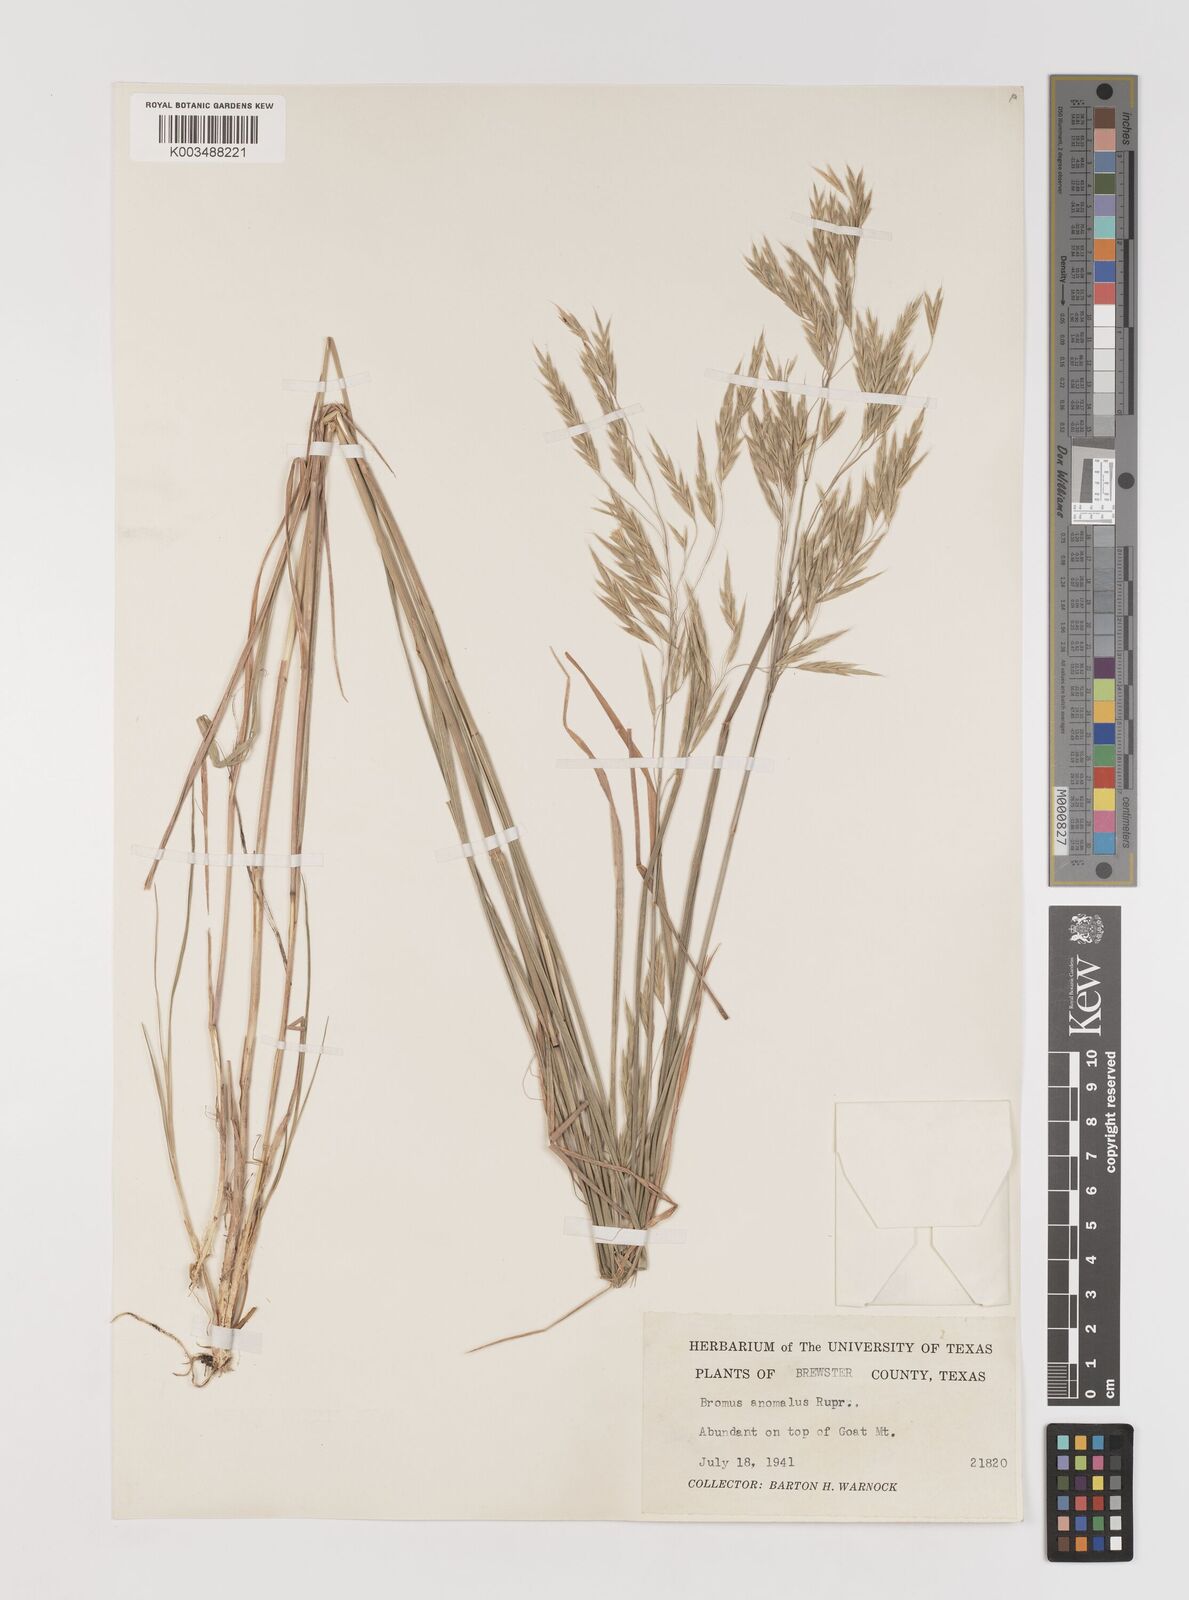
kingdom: Plantae
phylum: Tracheophyta
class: Liliopsida
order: Poales
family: Poaceae
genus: Bromus
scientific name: Bromus anomalus
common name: Nodding brome
